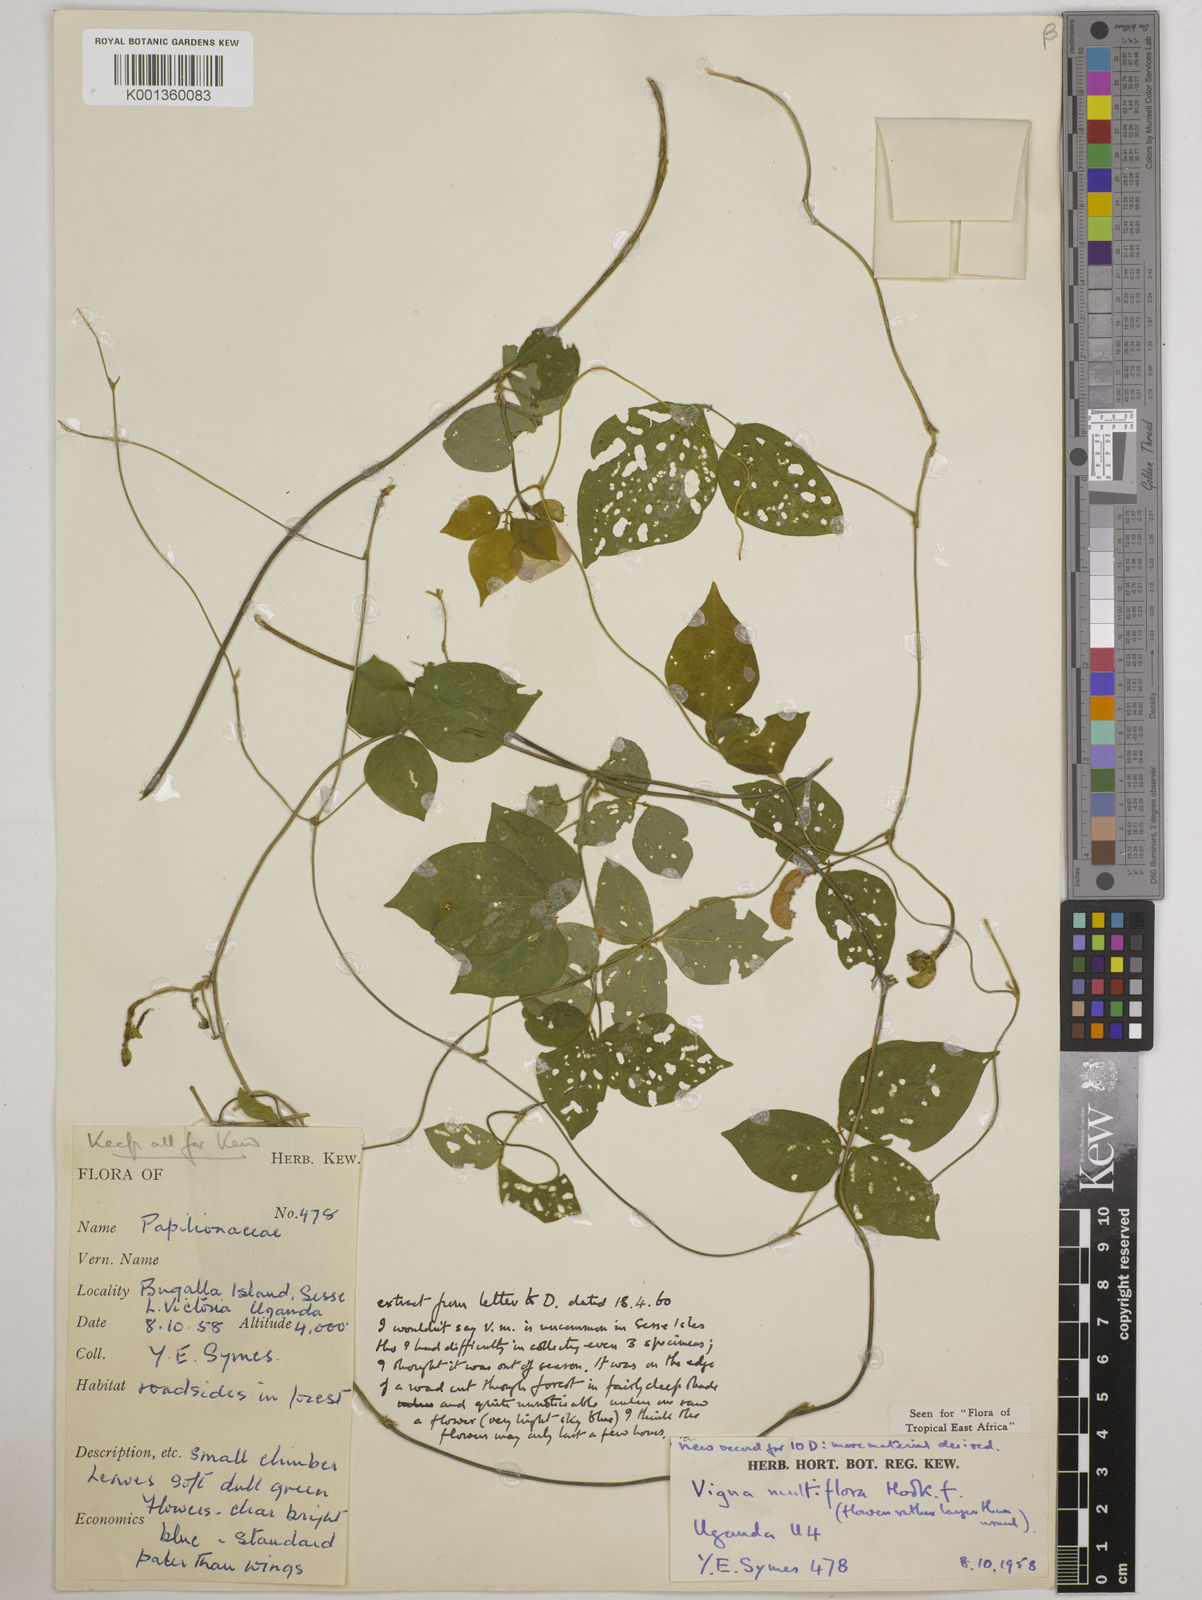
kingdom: Plantae
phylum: Tracheophyta
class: Magnoliopsida
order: Fabales
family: Fabaceae
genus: Vigna
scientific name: Vigna gracilis
